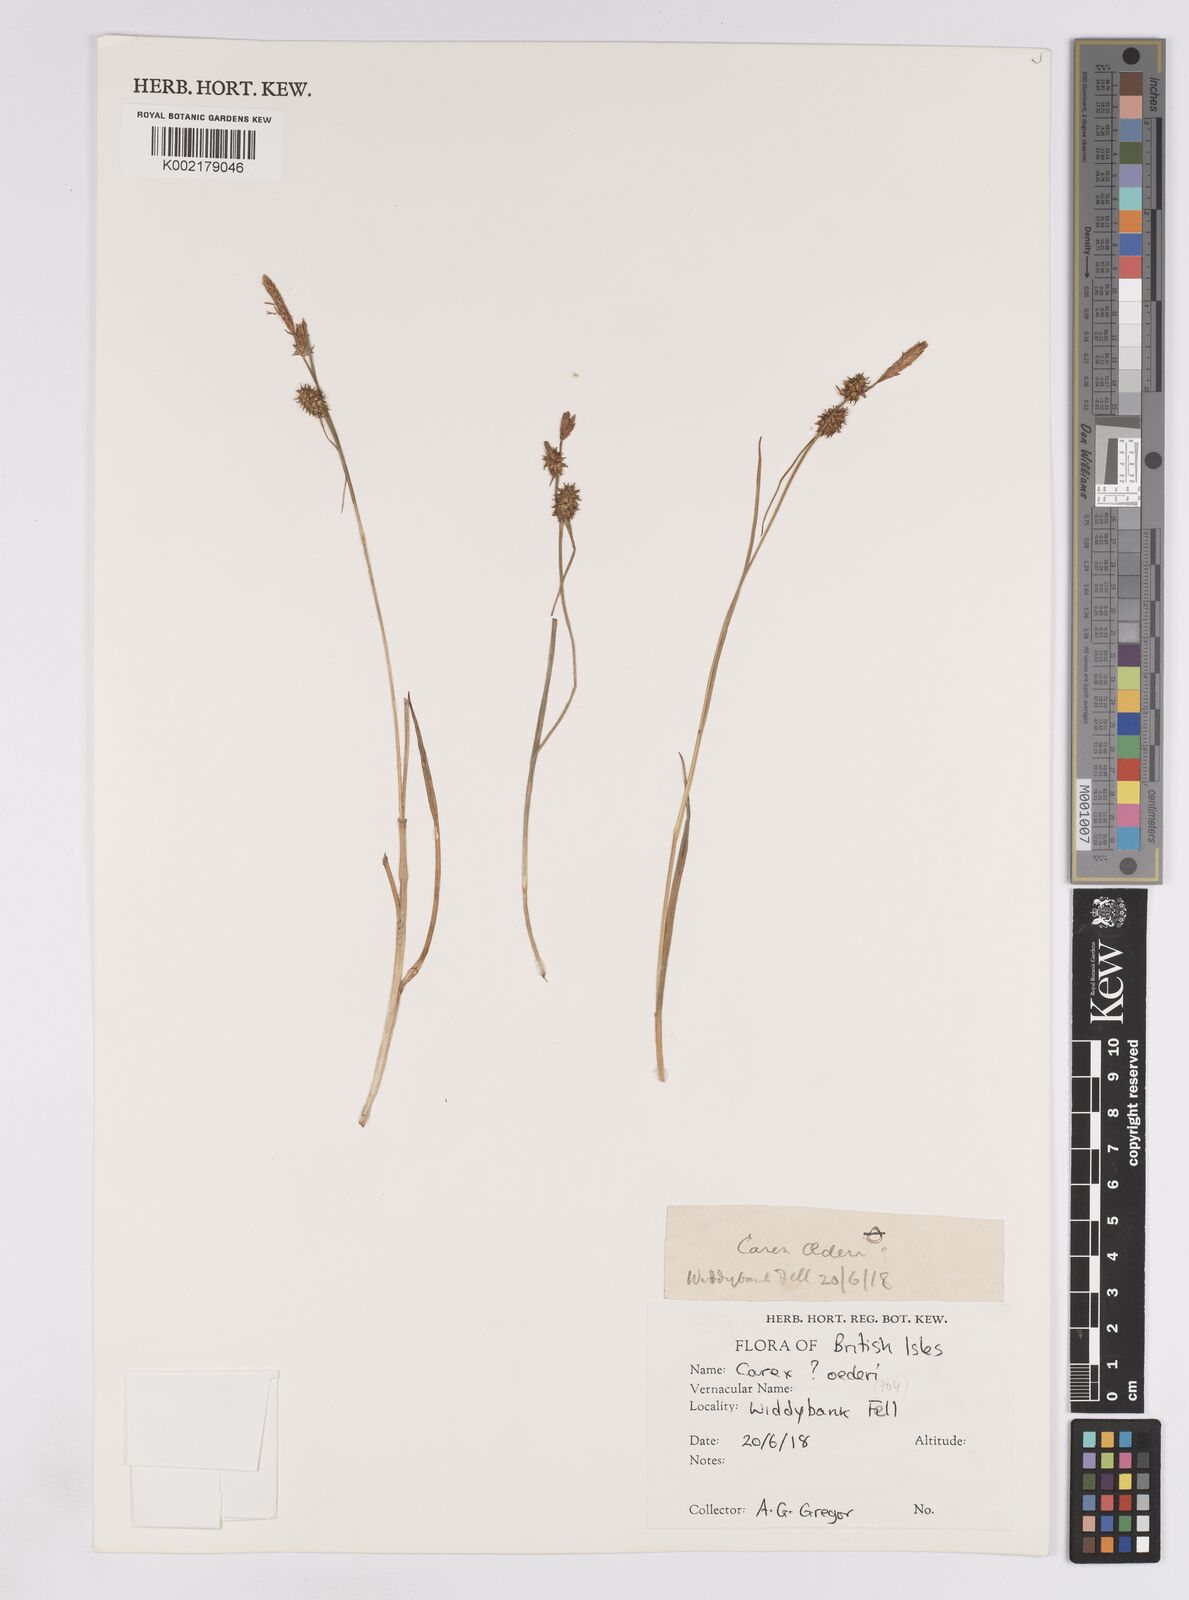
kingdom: Plantae
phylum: Tracheophyta
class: Liliopsida
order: Poales
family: Cyperaceae
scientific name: Cyperaceae
